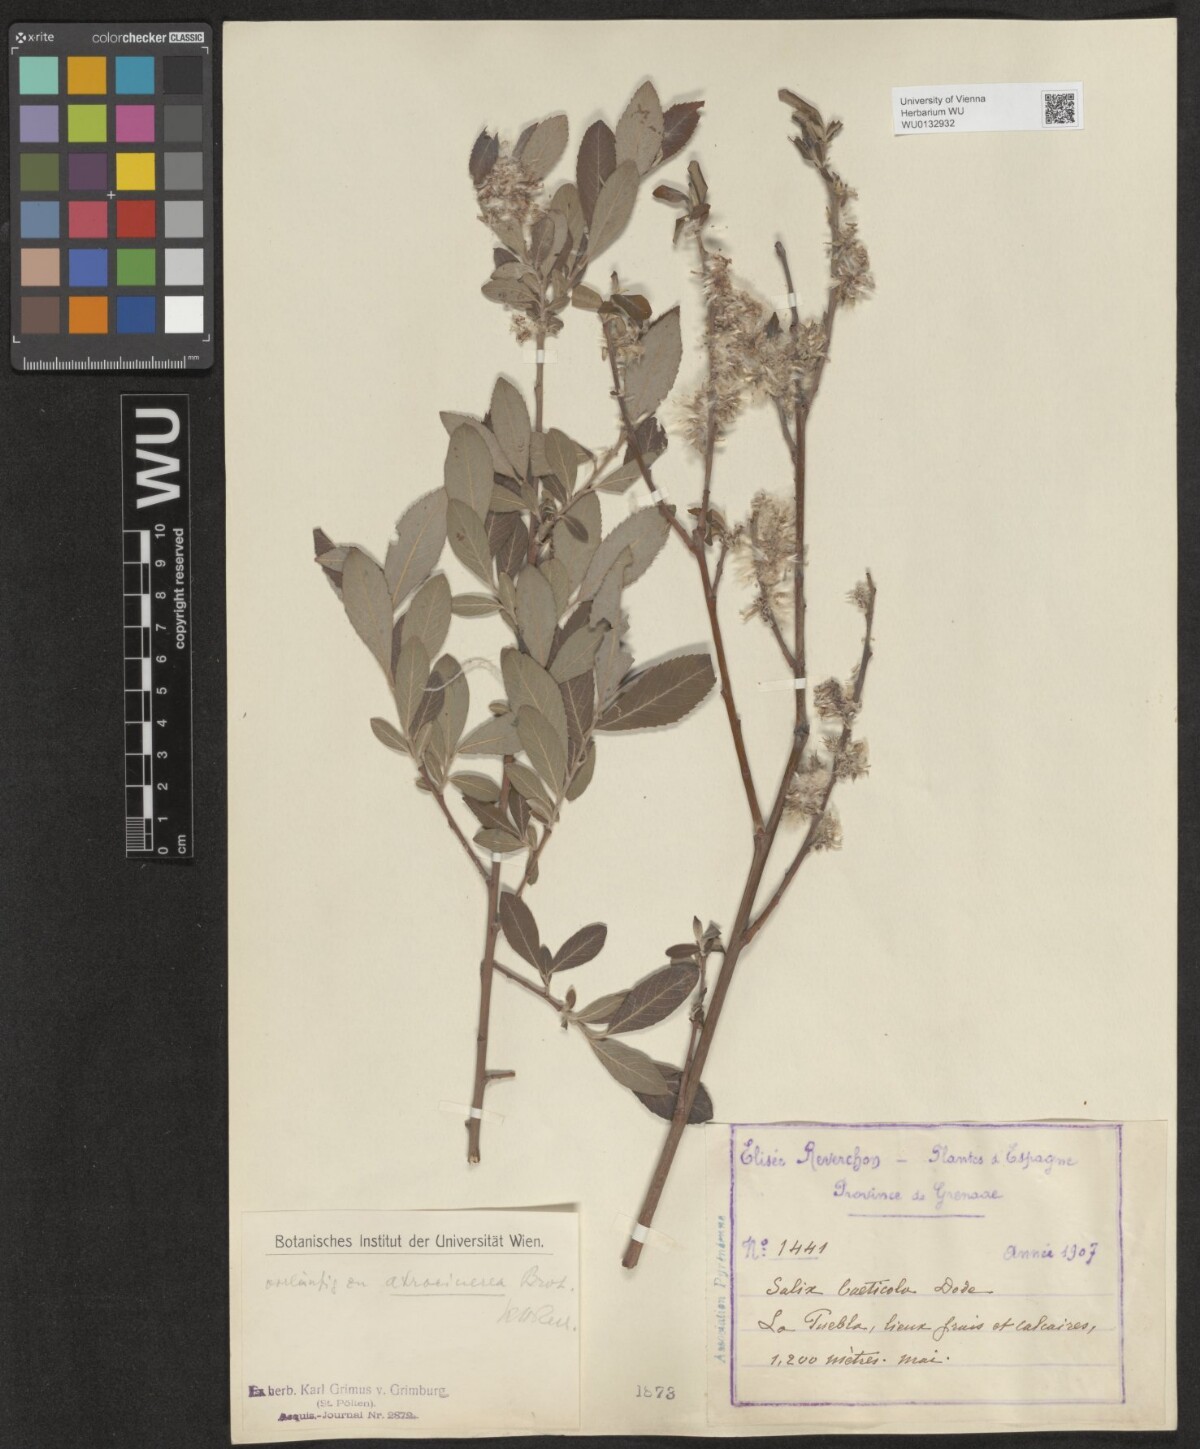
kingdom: Plantae
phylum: Tracheophyta
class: Magnoliopsida
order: Malpighiales
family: Salicaceae
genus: Salix
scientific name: Salix atrocinerea
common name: Rusty willow
